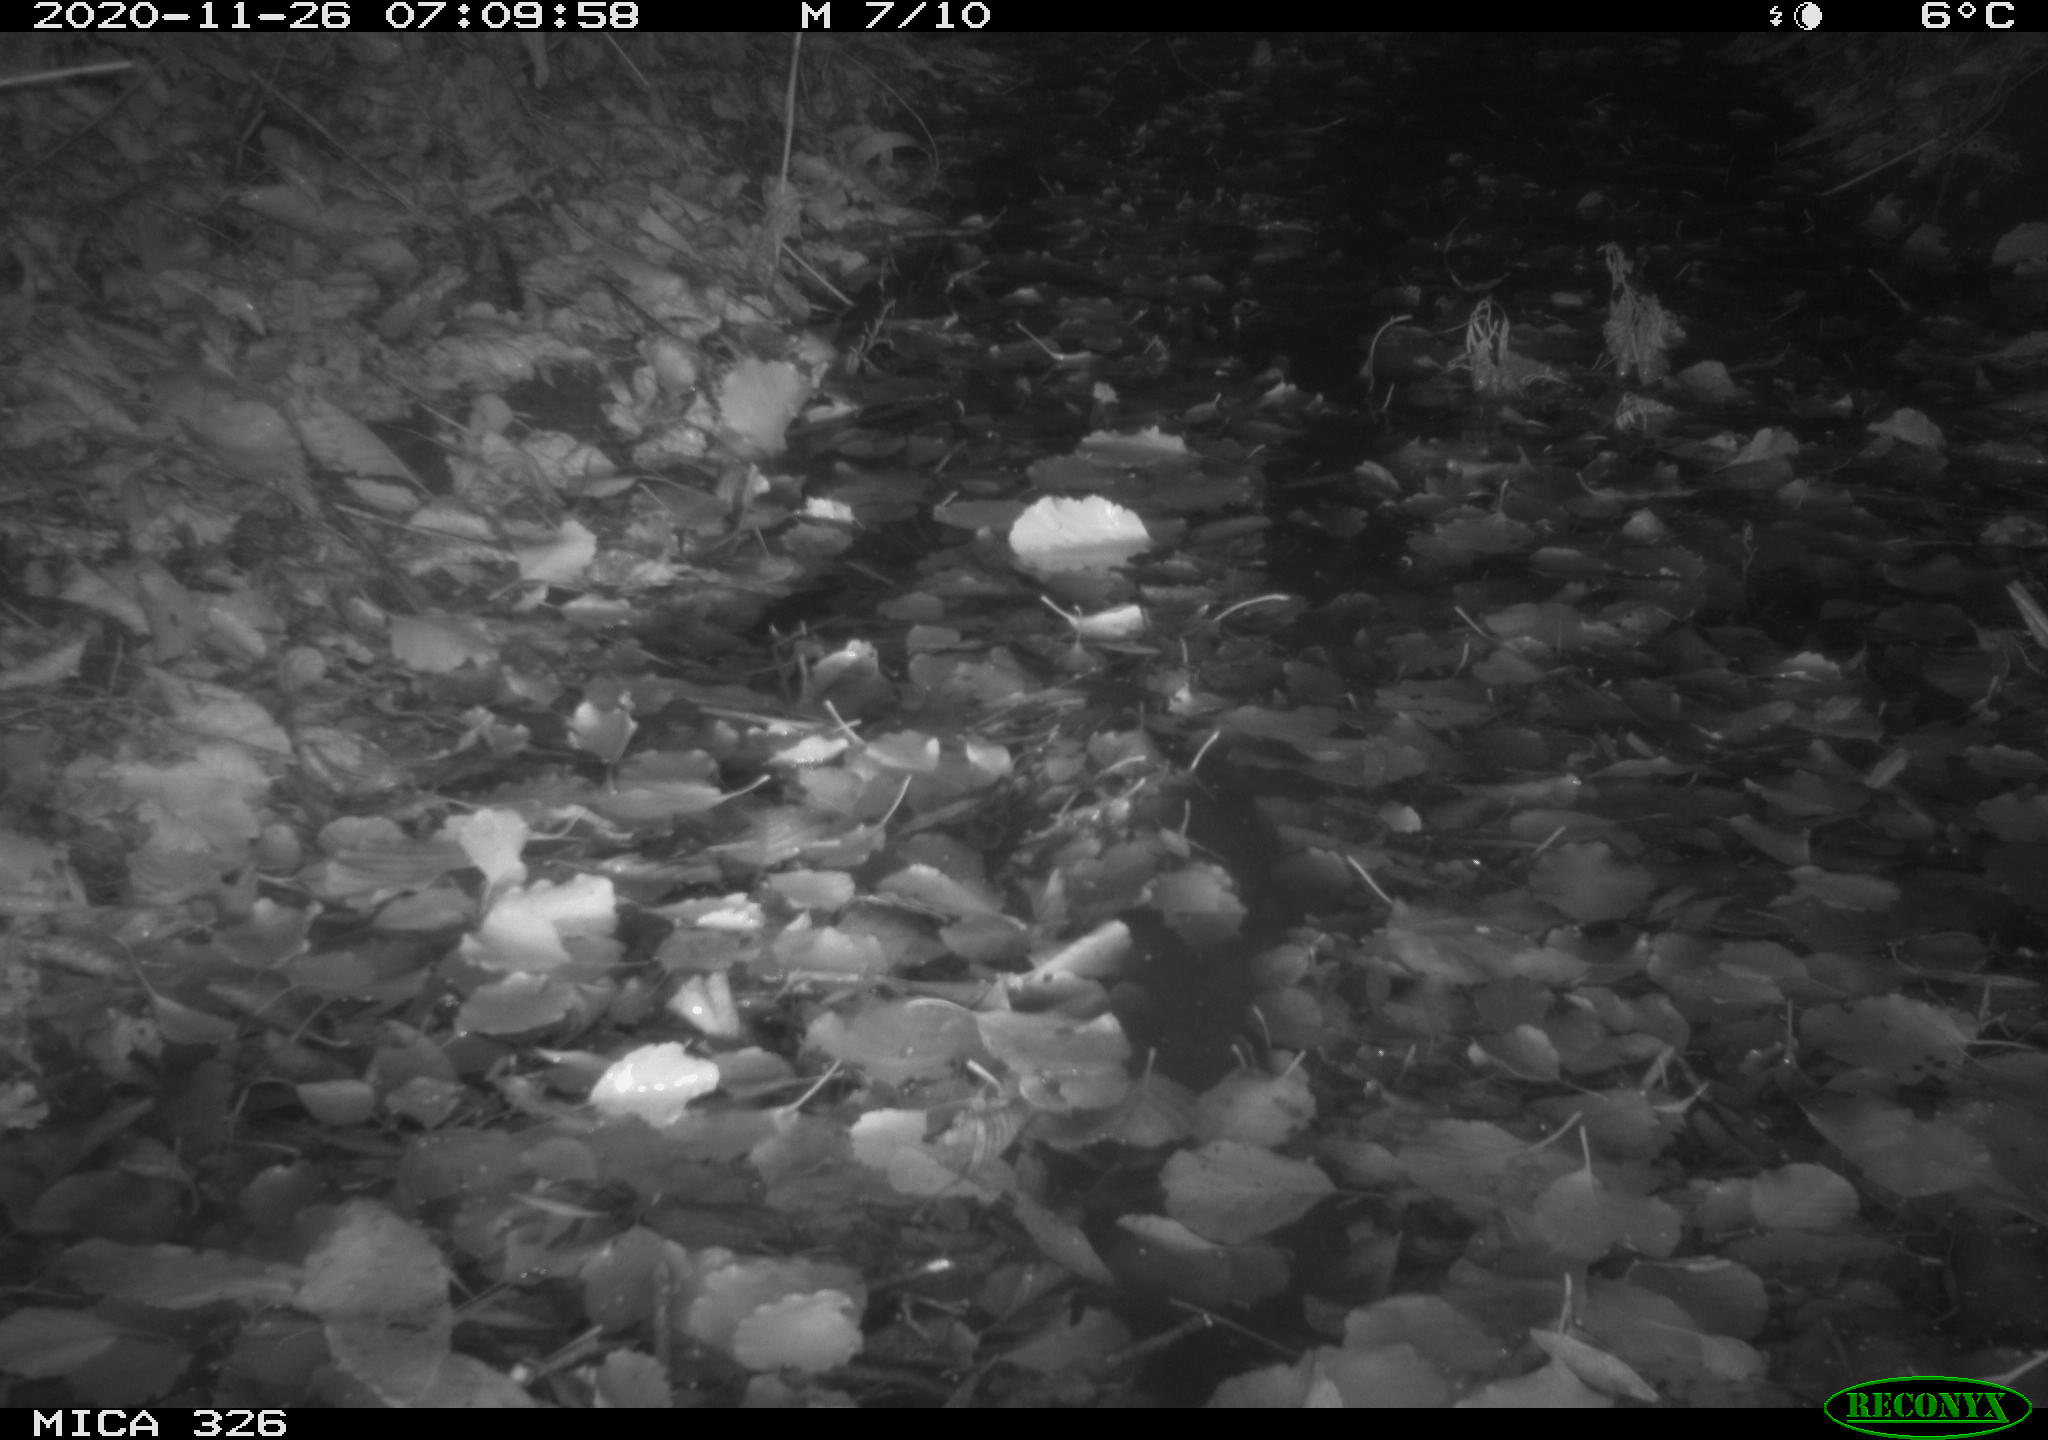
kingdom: Animalia
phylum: Chordata
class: Mammalia
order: Carnivora
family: Mustelidae
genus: Lutra
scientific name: Lutra lutra
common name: European otter
